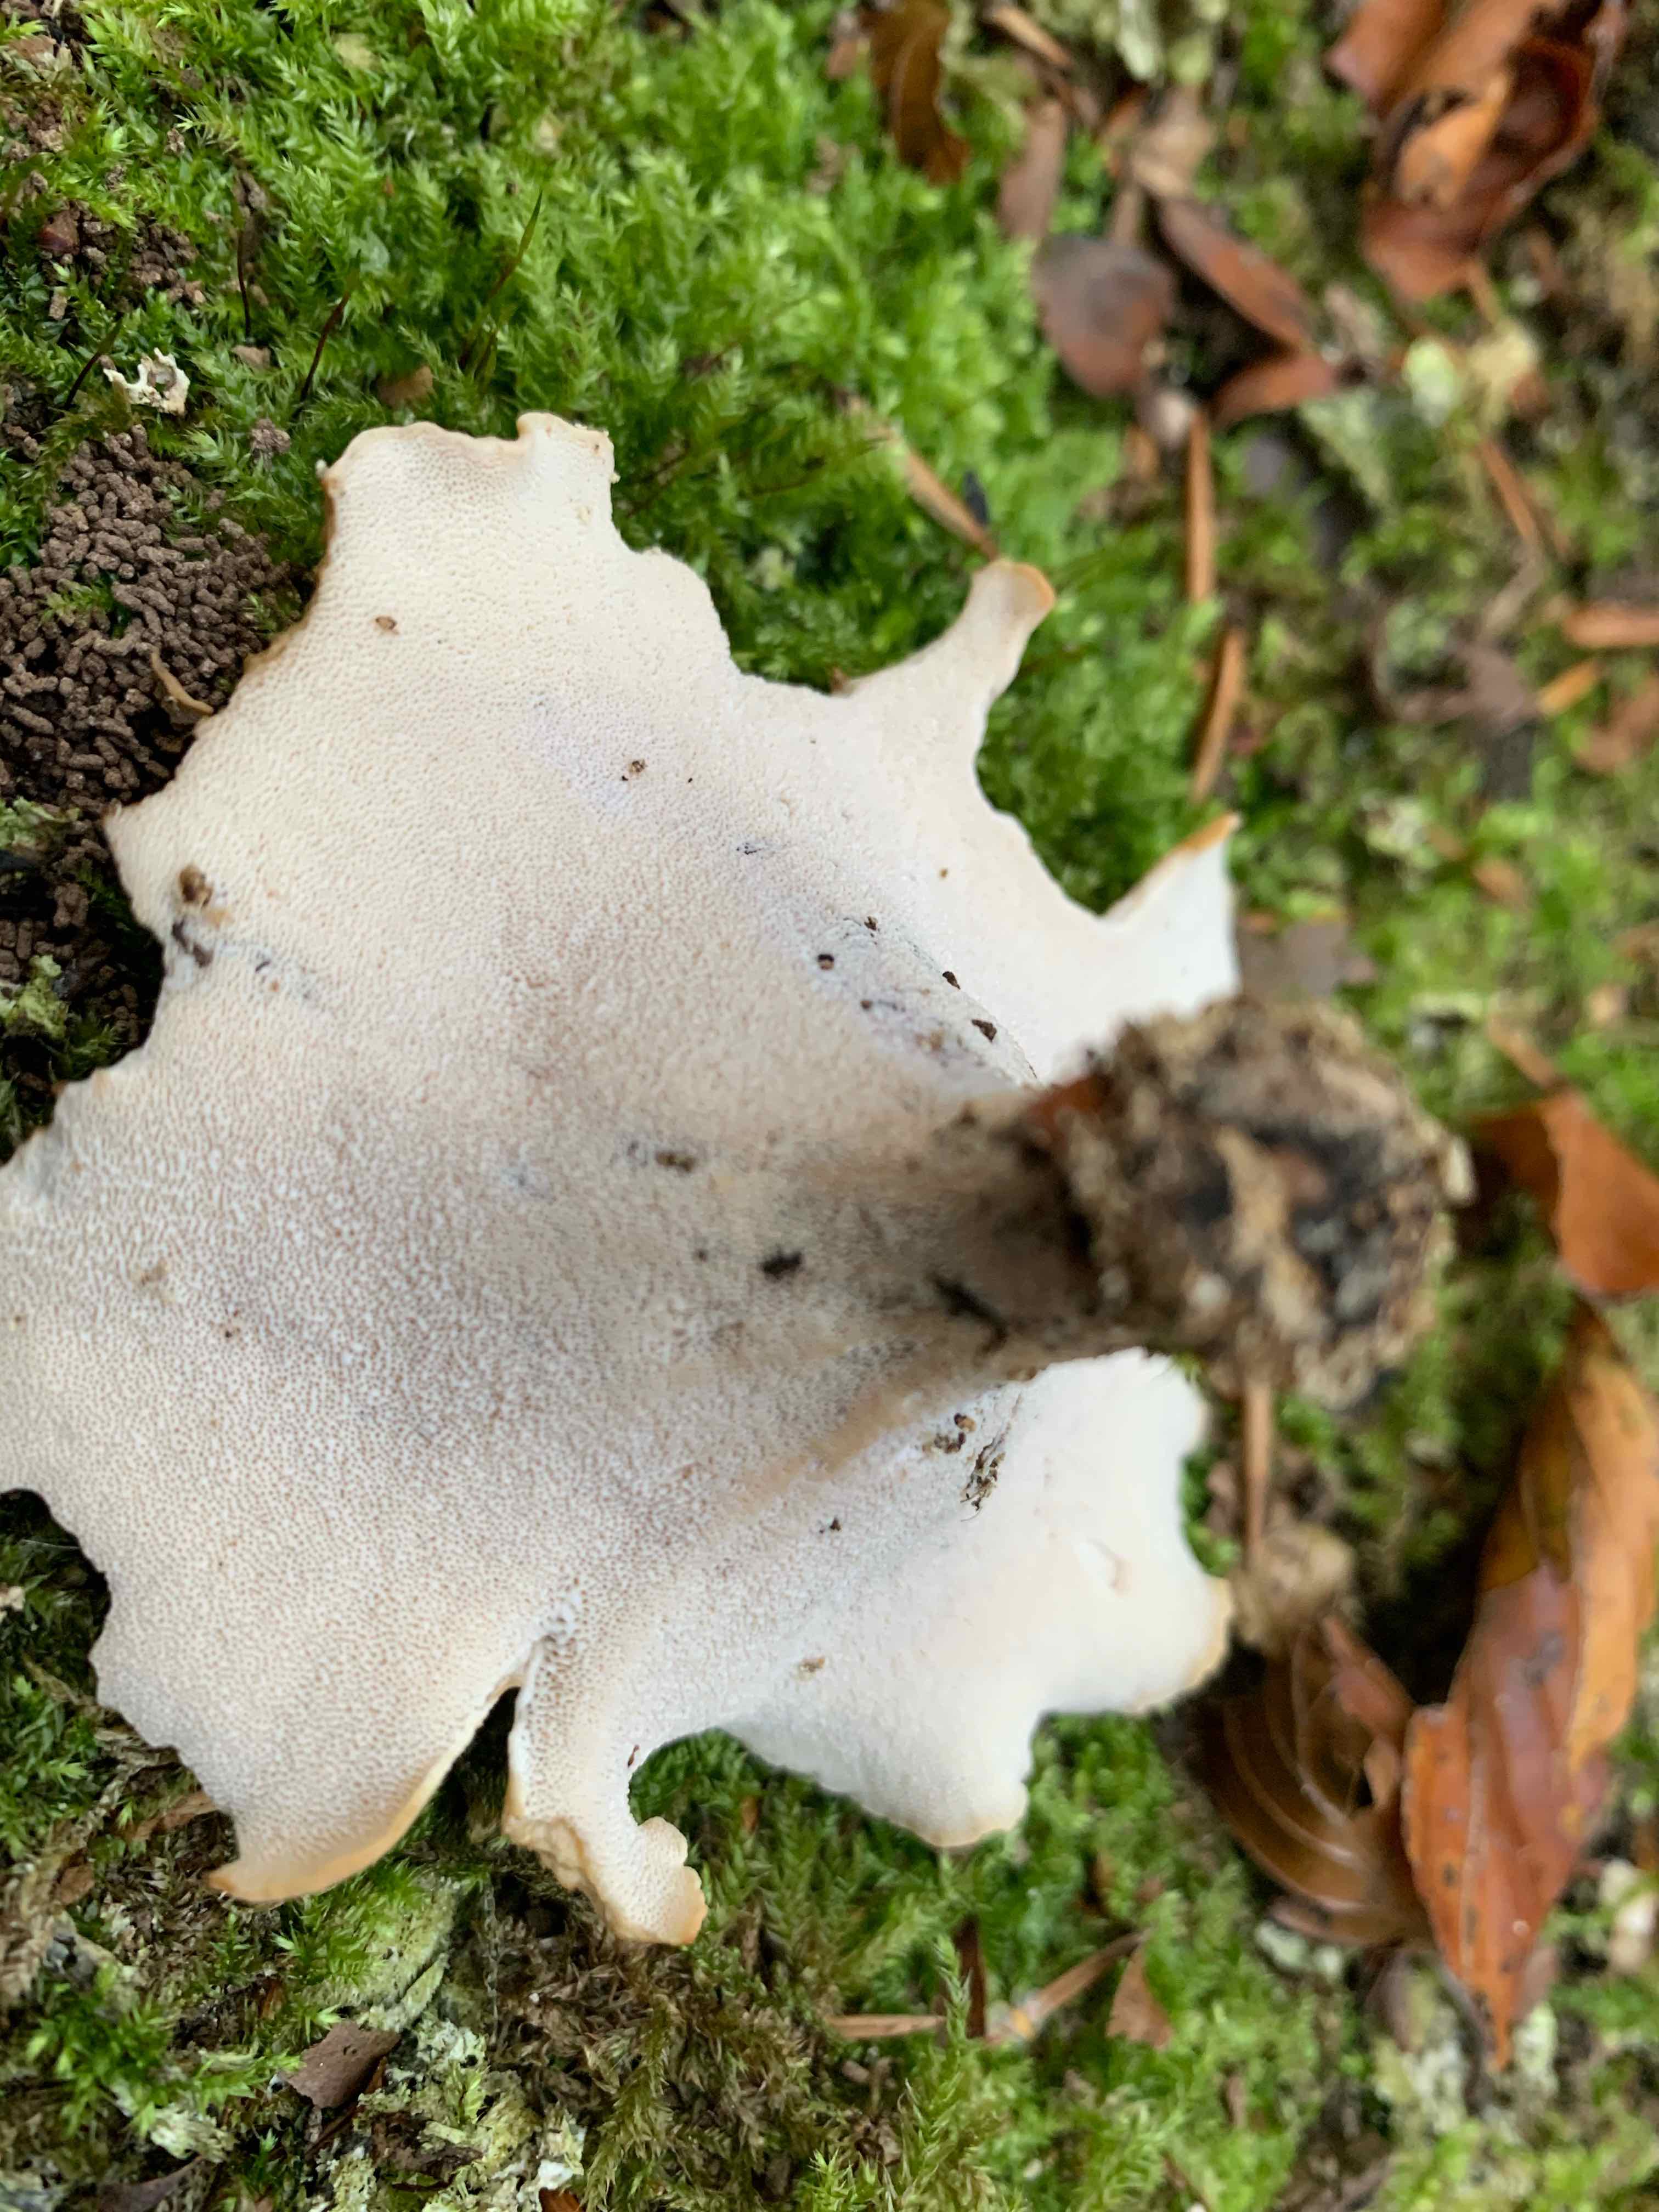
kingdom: Fungi
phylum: Basidiomycota
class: Agaricomycetes
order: Polyporales
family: Polyporaceae
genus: Cerioporus
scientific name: Cerioporus varius
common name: foranderlig stilkporesvamp
